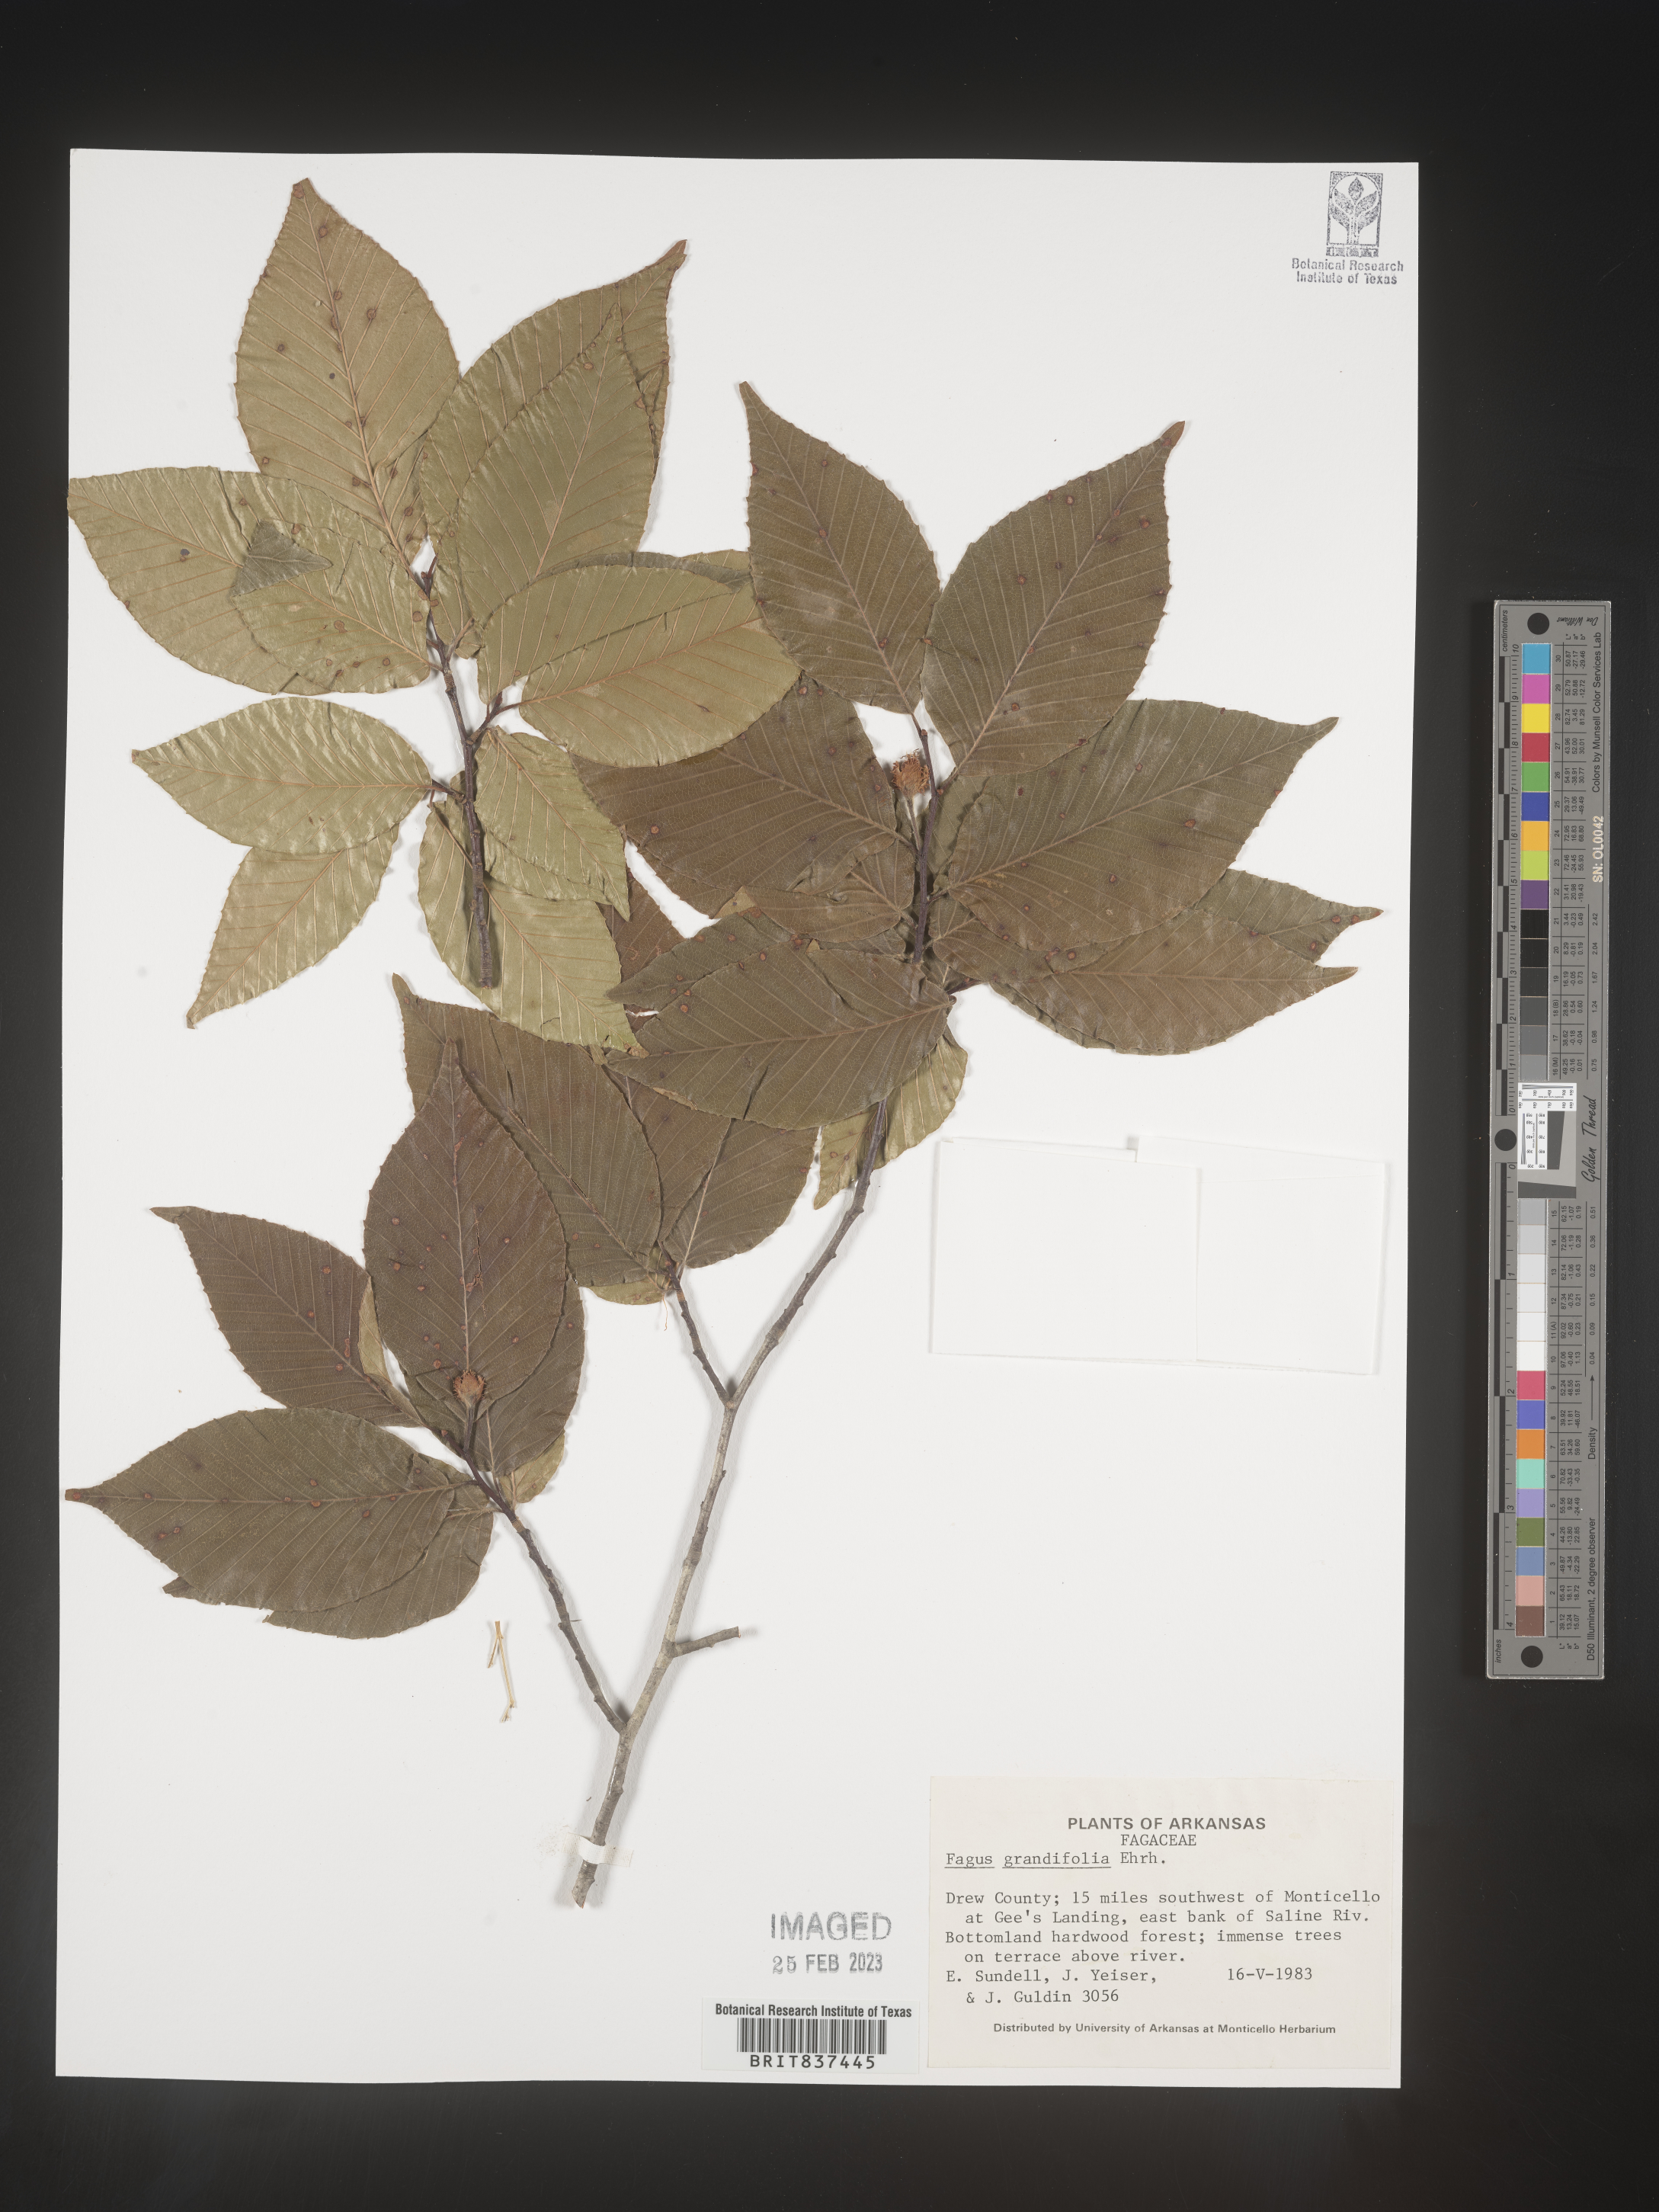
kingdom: Plantae
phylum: Tracheophyta
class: Magnoliopsida
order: Fagales
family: Fagaceae
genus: Fagus
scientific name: Fagus grandifolia
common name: American beech
